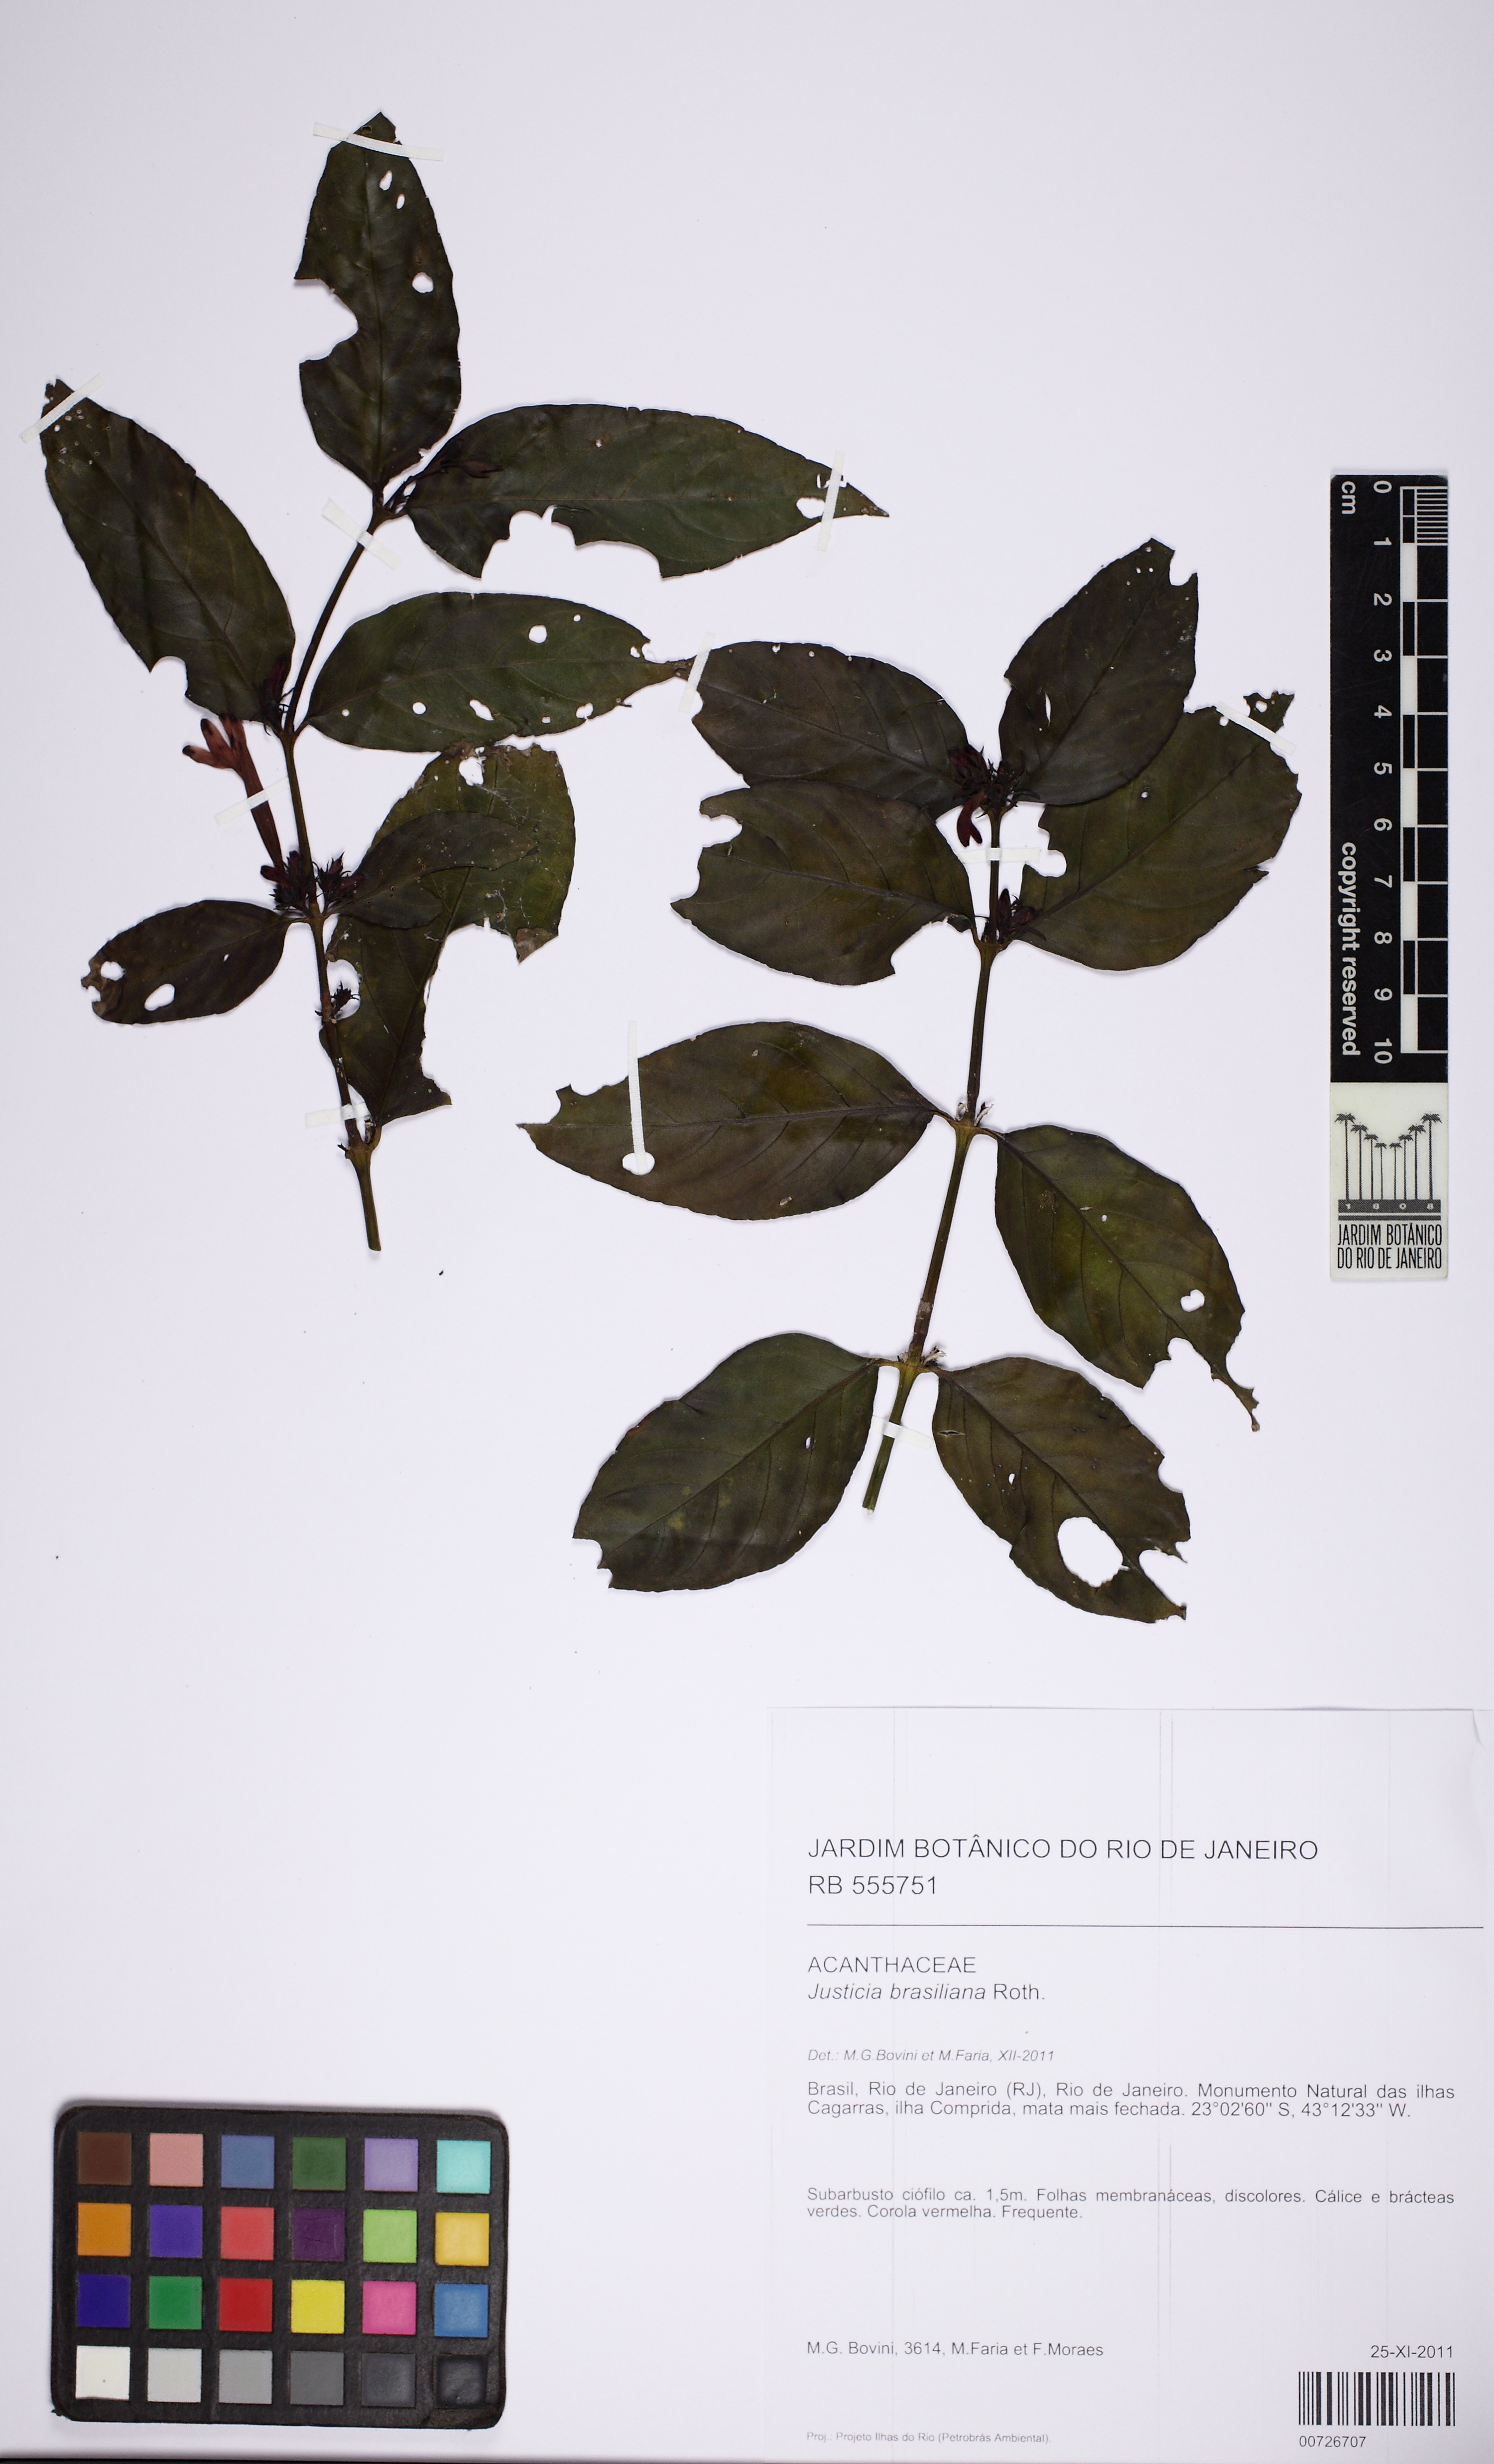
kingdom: Plantae
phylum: Tracheophyta
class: Magnoliopsida
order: Lamiales
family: Acanthaceae
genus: Justicia
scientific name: Justicia brasiliana
